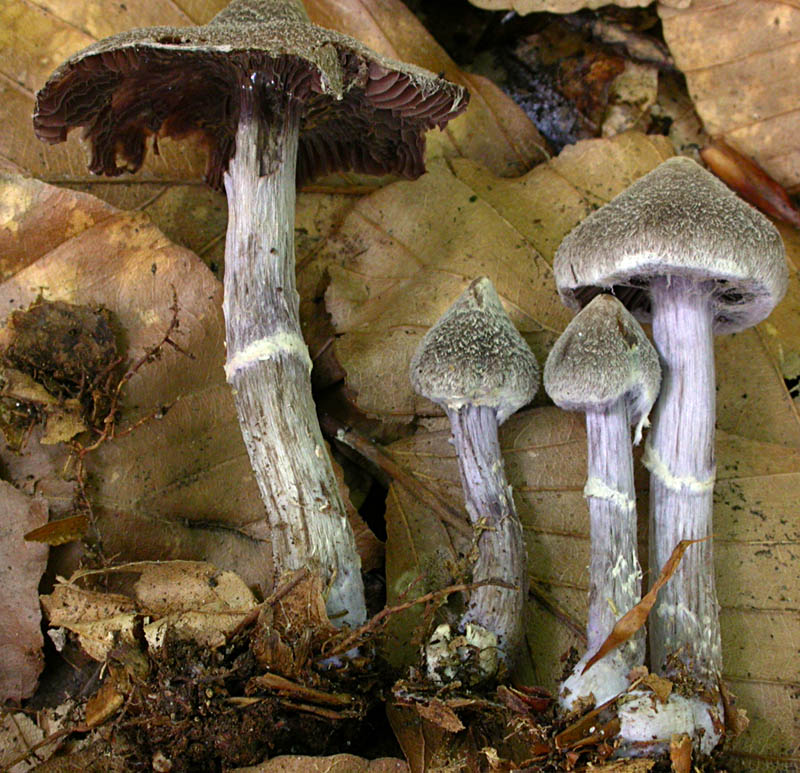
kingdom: Fungi
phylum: Basidiomycota
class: Agaricomycetes
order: Agaricales
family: Cortinariaceae
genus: Cortinarius
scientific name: Cortinarius
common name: pelargonie-slørhat
